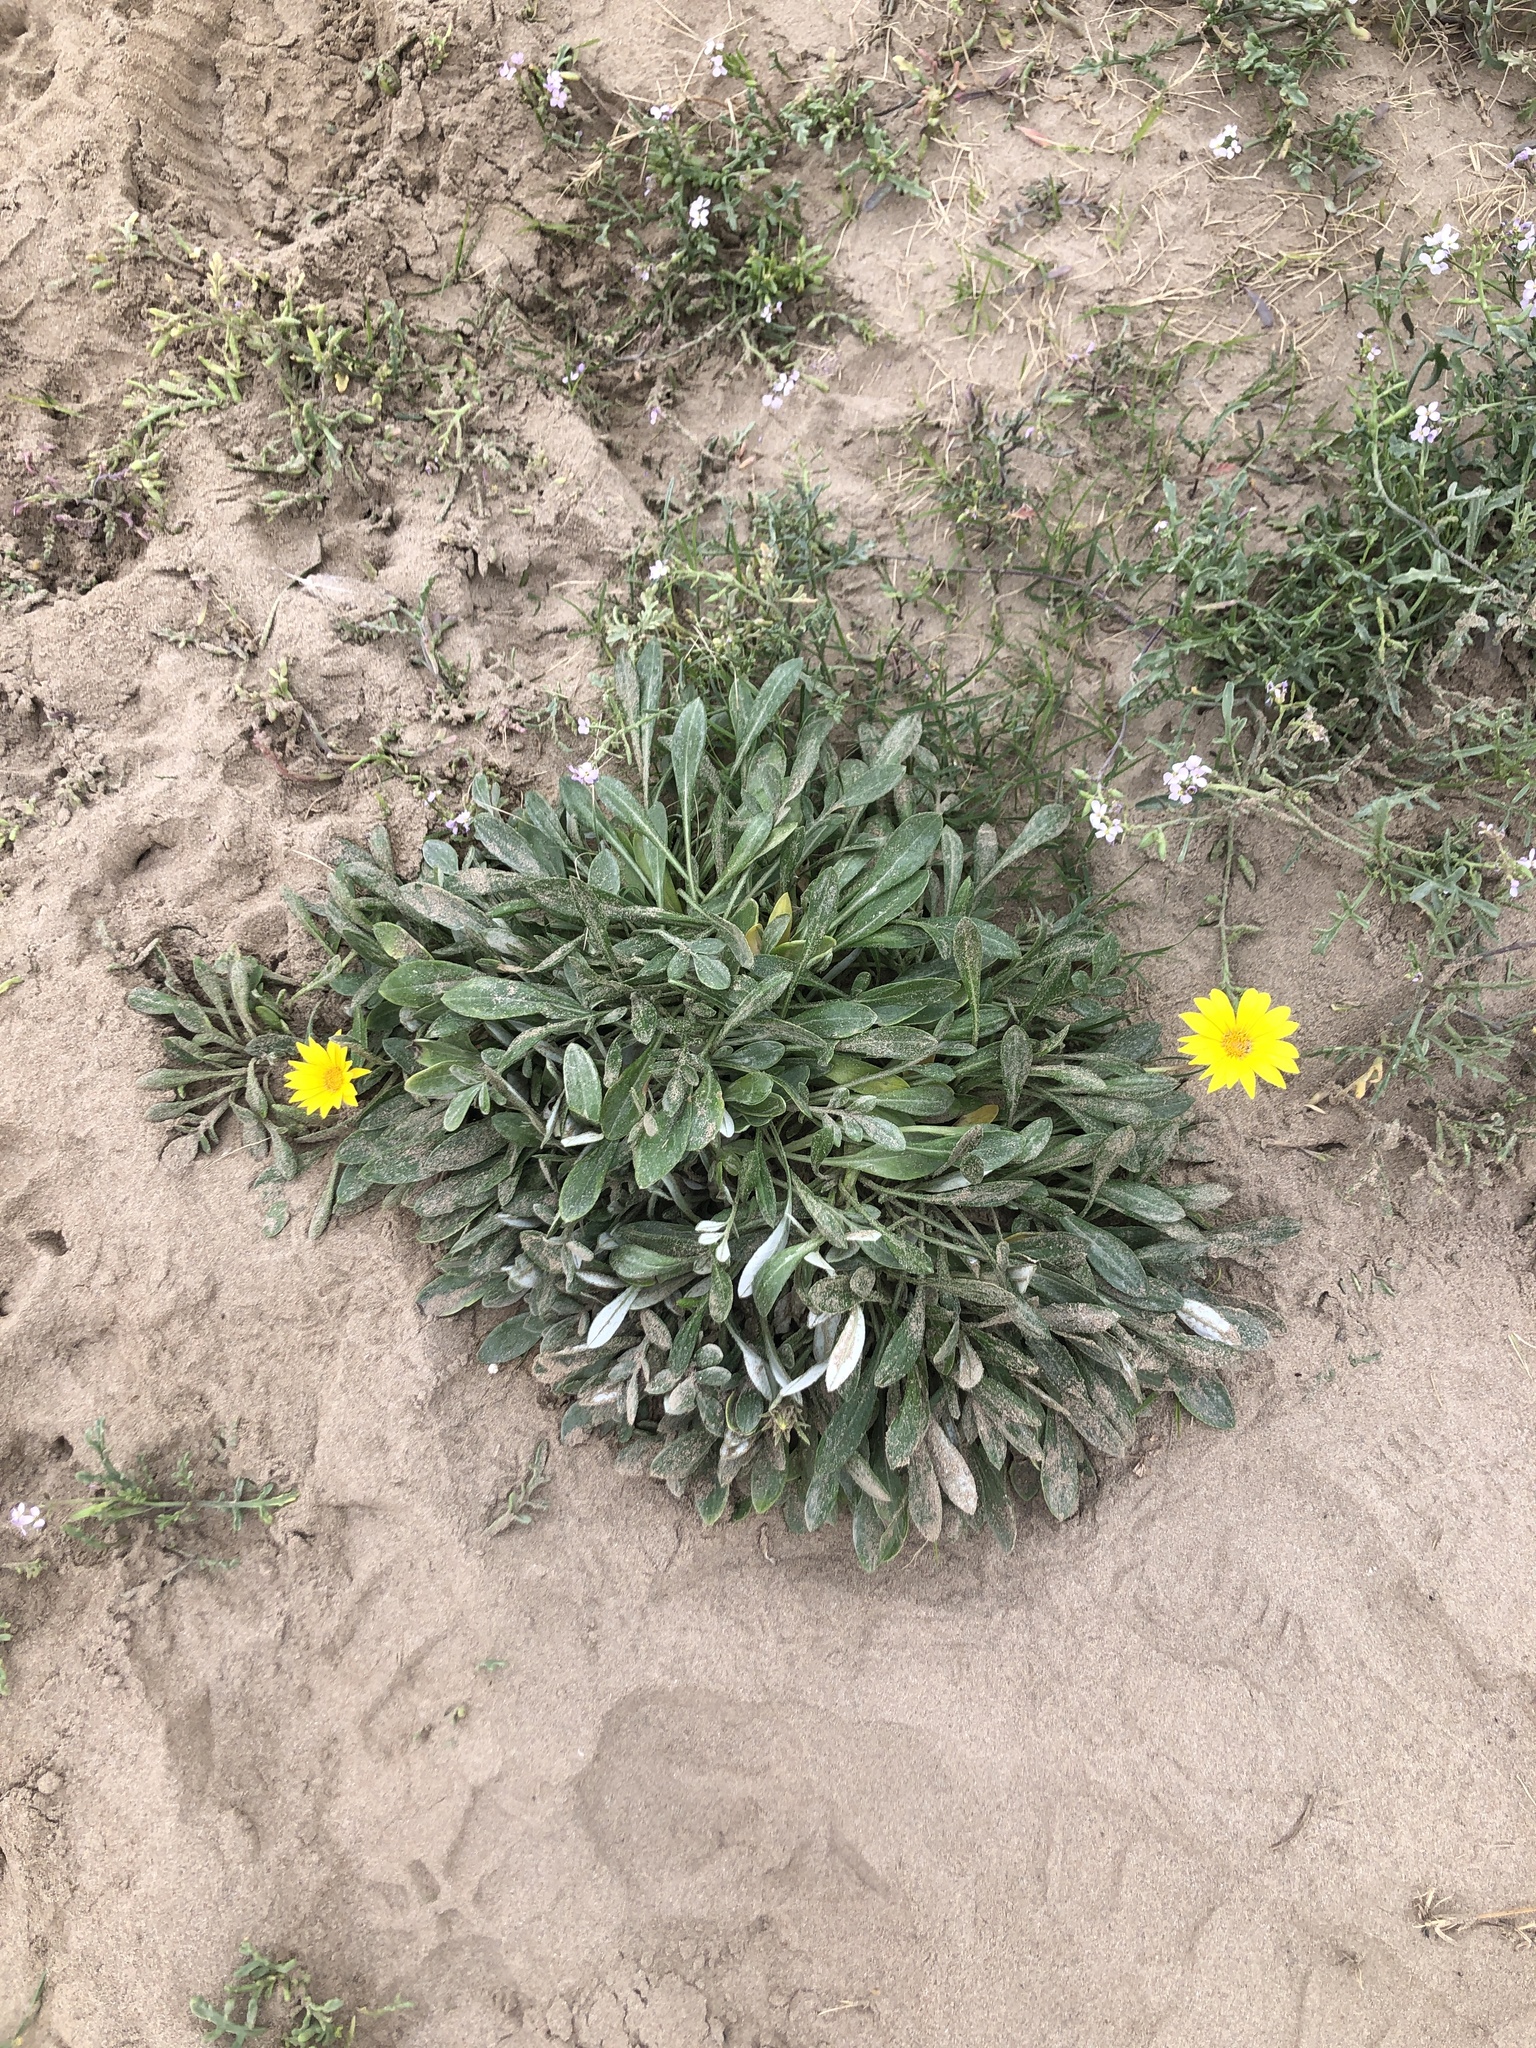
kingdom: Plantae
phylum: Tracheophyta
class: Magnoliopsida
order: Asterales
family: Asteraceae
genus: Gazania
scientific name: Gazania rigens
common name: Treasureflower
